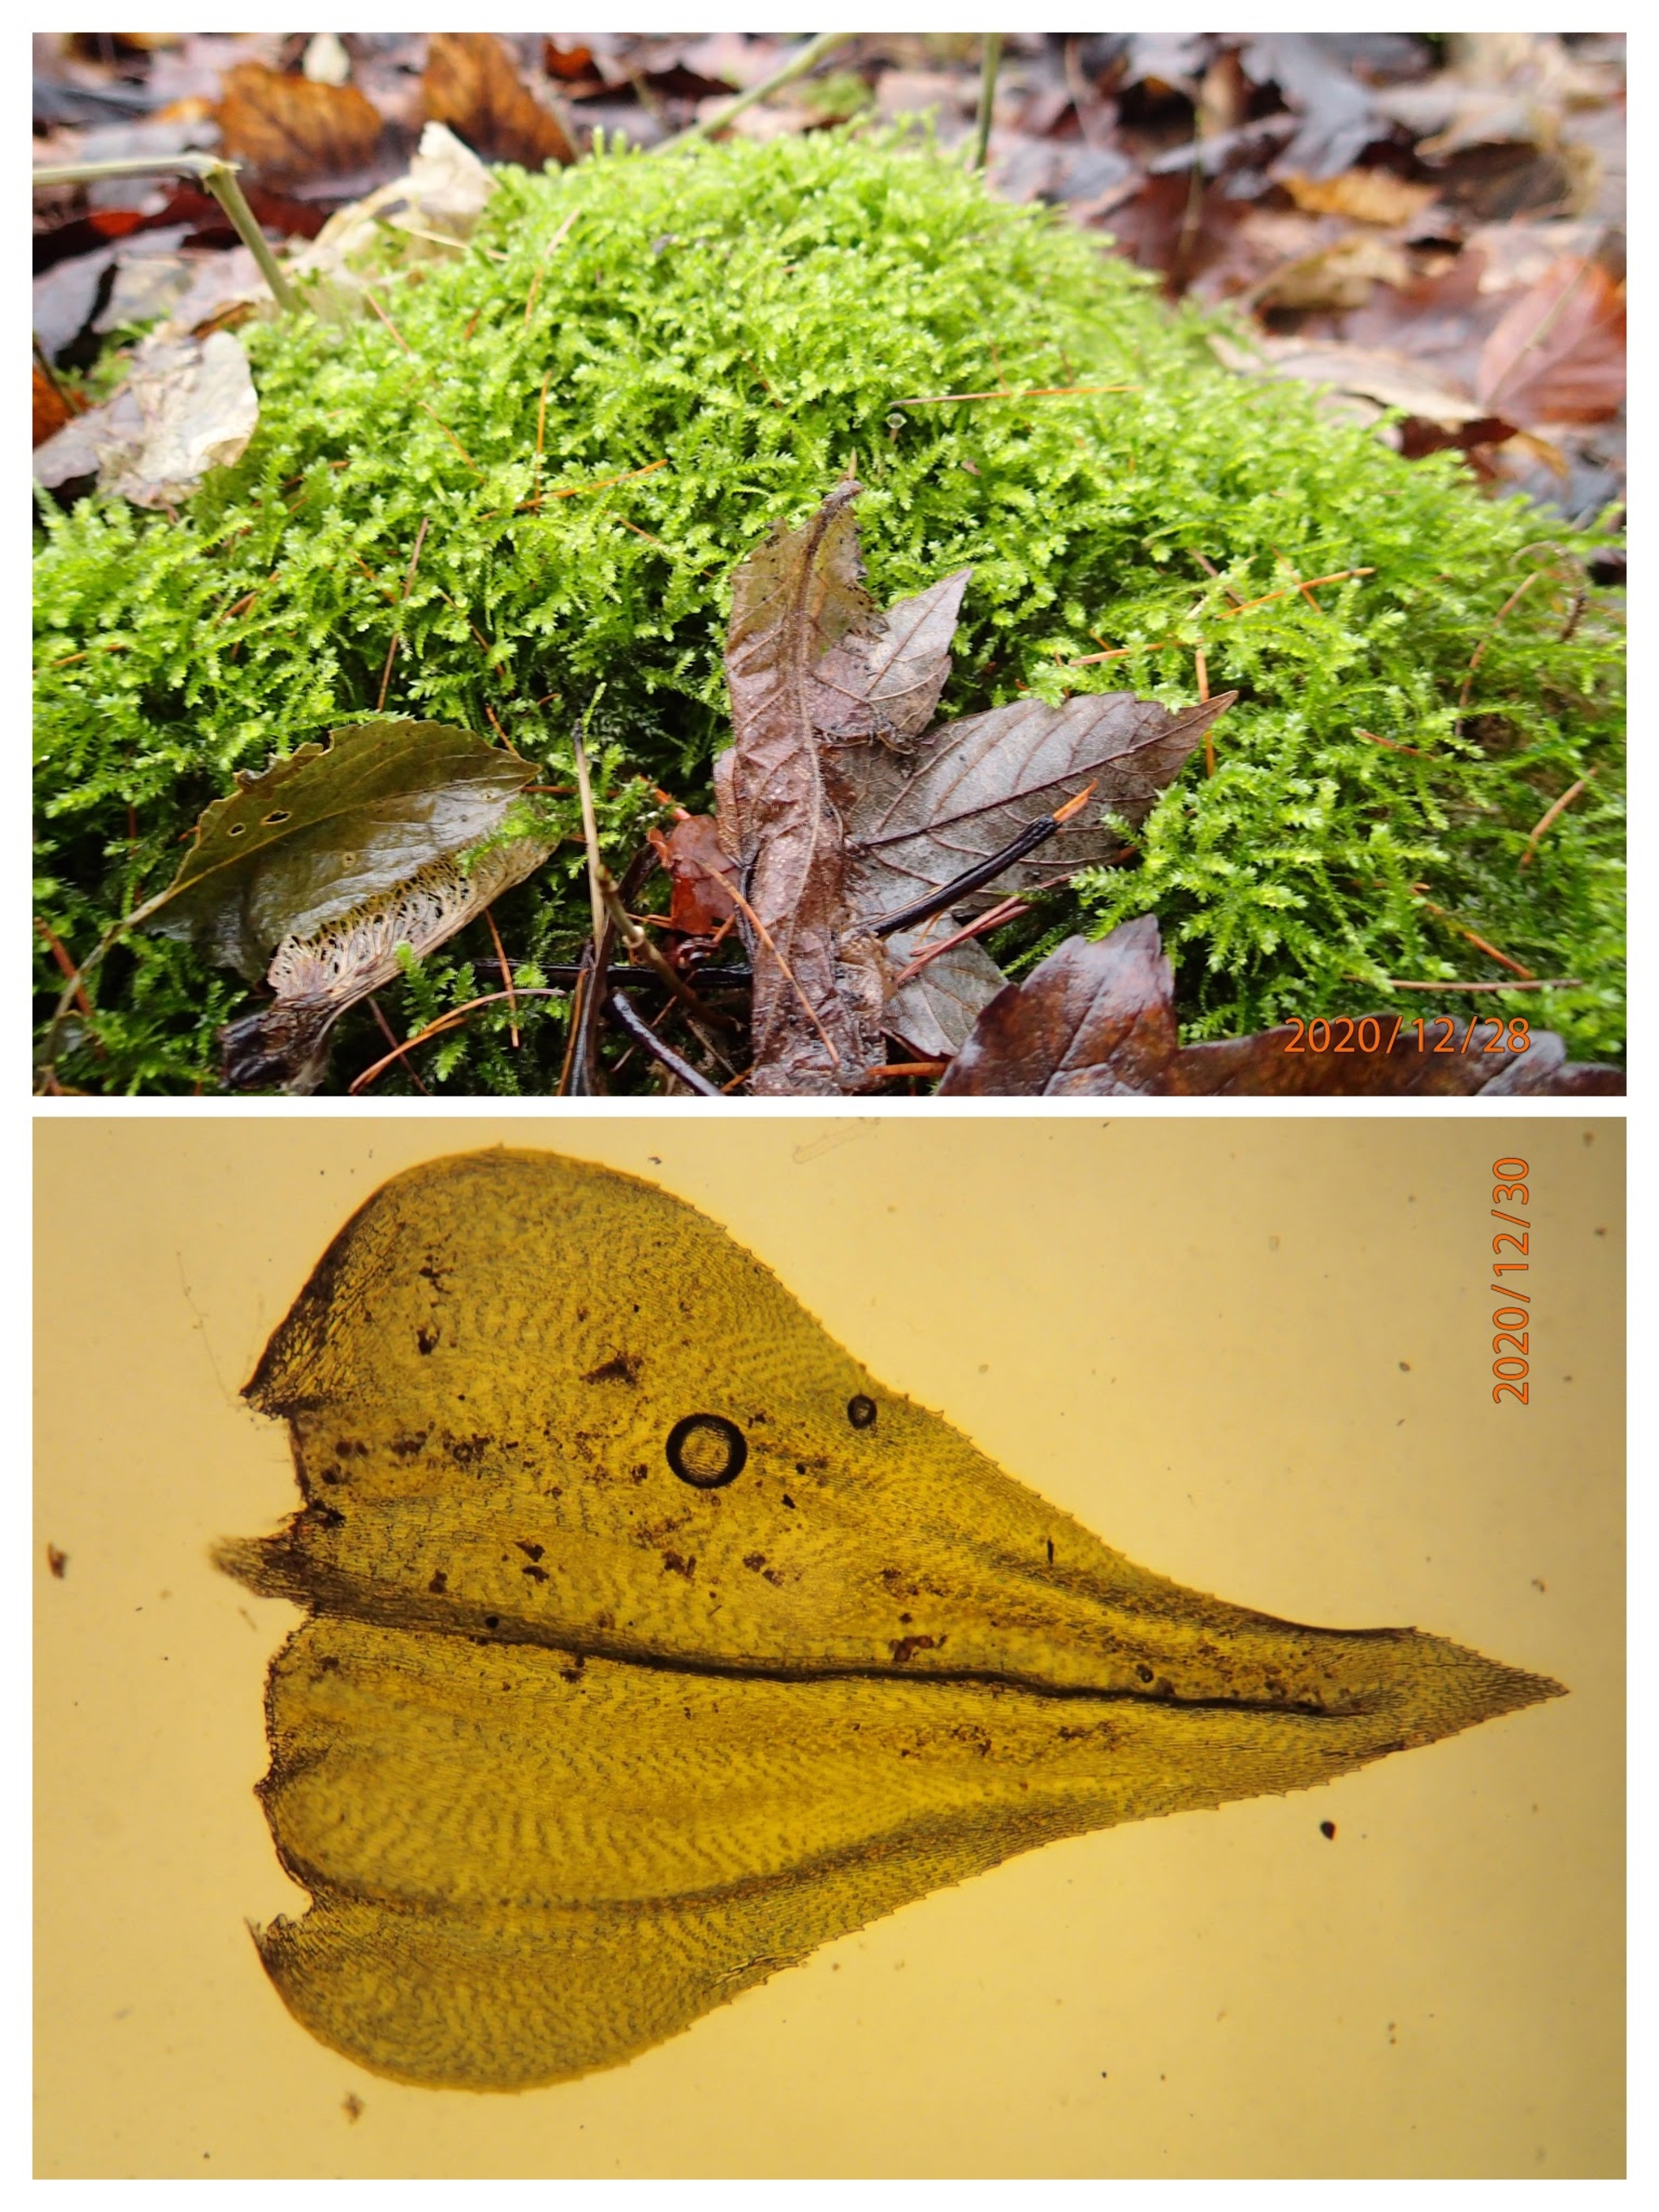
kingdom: Plantae
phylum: Bryophyta
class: Bryopsida
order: Hypnales
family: Brachytheciaceae
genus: Eurhynchium
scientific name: Eurhynchium striatum
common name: Stribet næbmos
